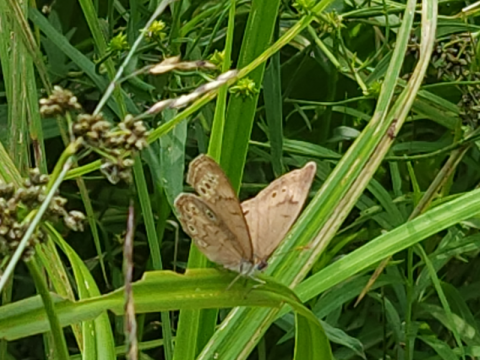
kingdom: Animalia
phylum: Arthropoda
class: Insecta
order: Lepidoptera
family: Nymphalidae
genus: Lethe
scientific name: Lethe eurydice
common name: Eyed Brown
